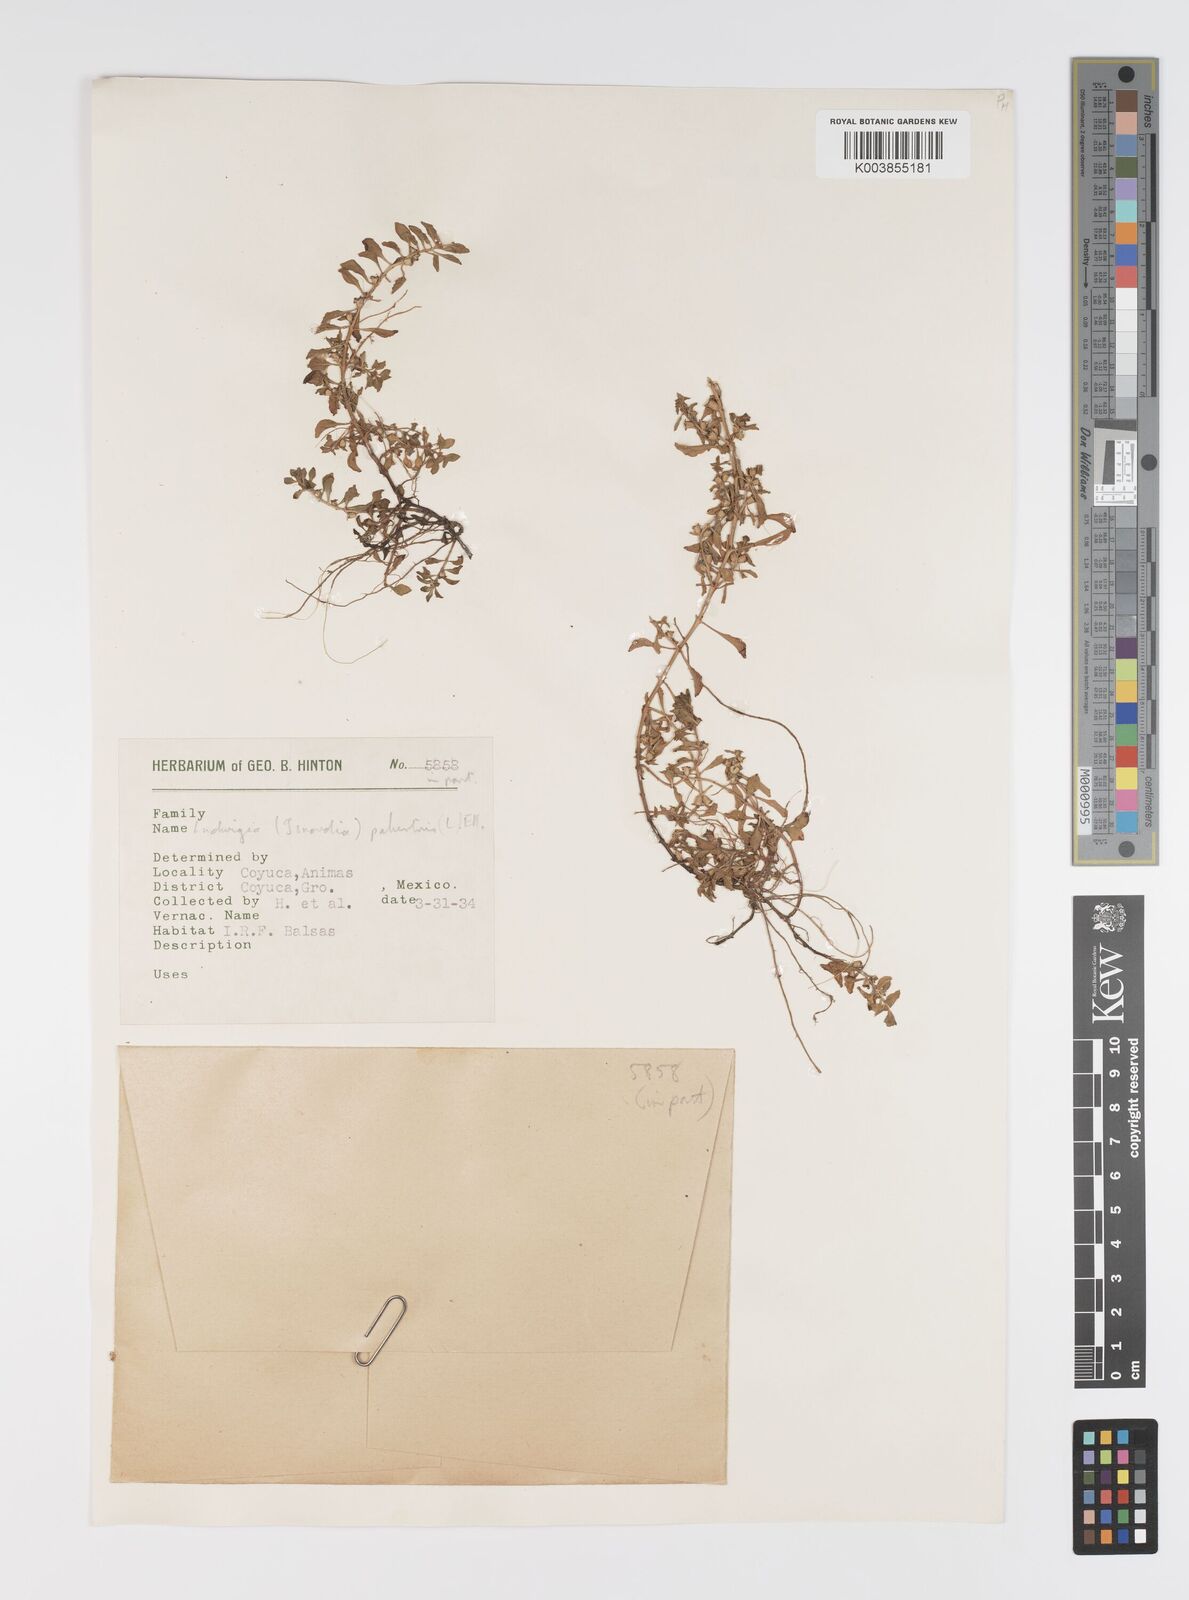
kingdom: Plantae
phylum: Tracheophyta
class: Magnoliopsida
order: Myrtales
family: Onagraceae
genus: Ludwigia
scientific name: Ludwigia palustris
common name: Hampshire-purslane
